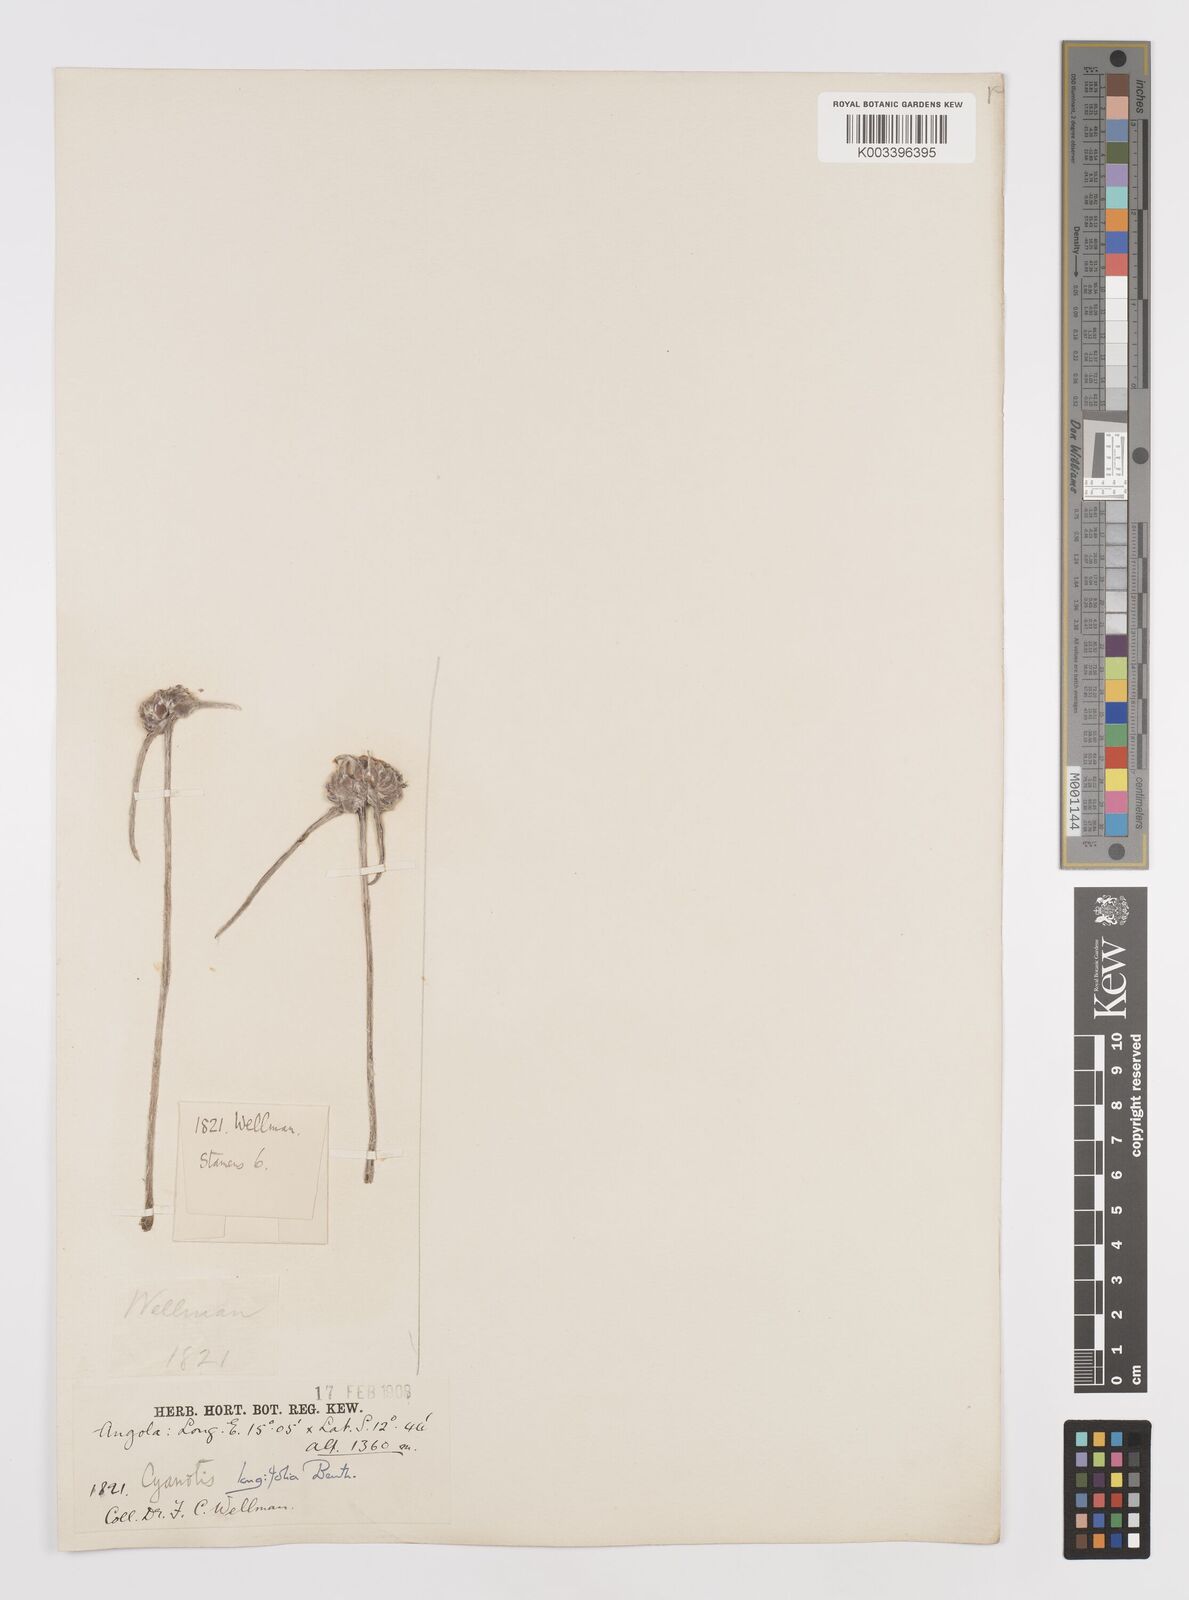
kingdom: Plantae
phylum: Tracheophyta
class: Liliopsida
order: Commelinales
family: Commelinaceae
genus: Cyanotis
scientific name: Cyanotis longifolia
